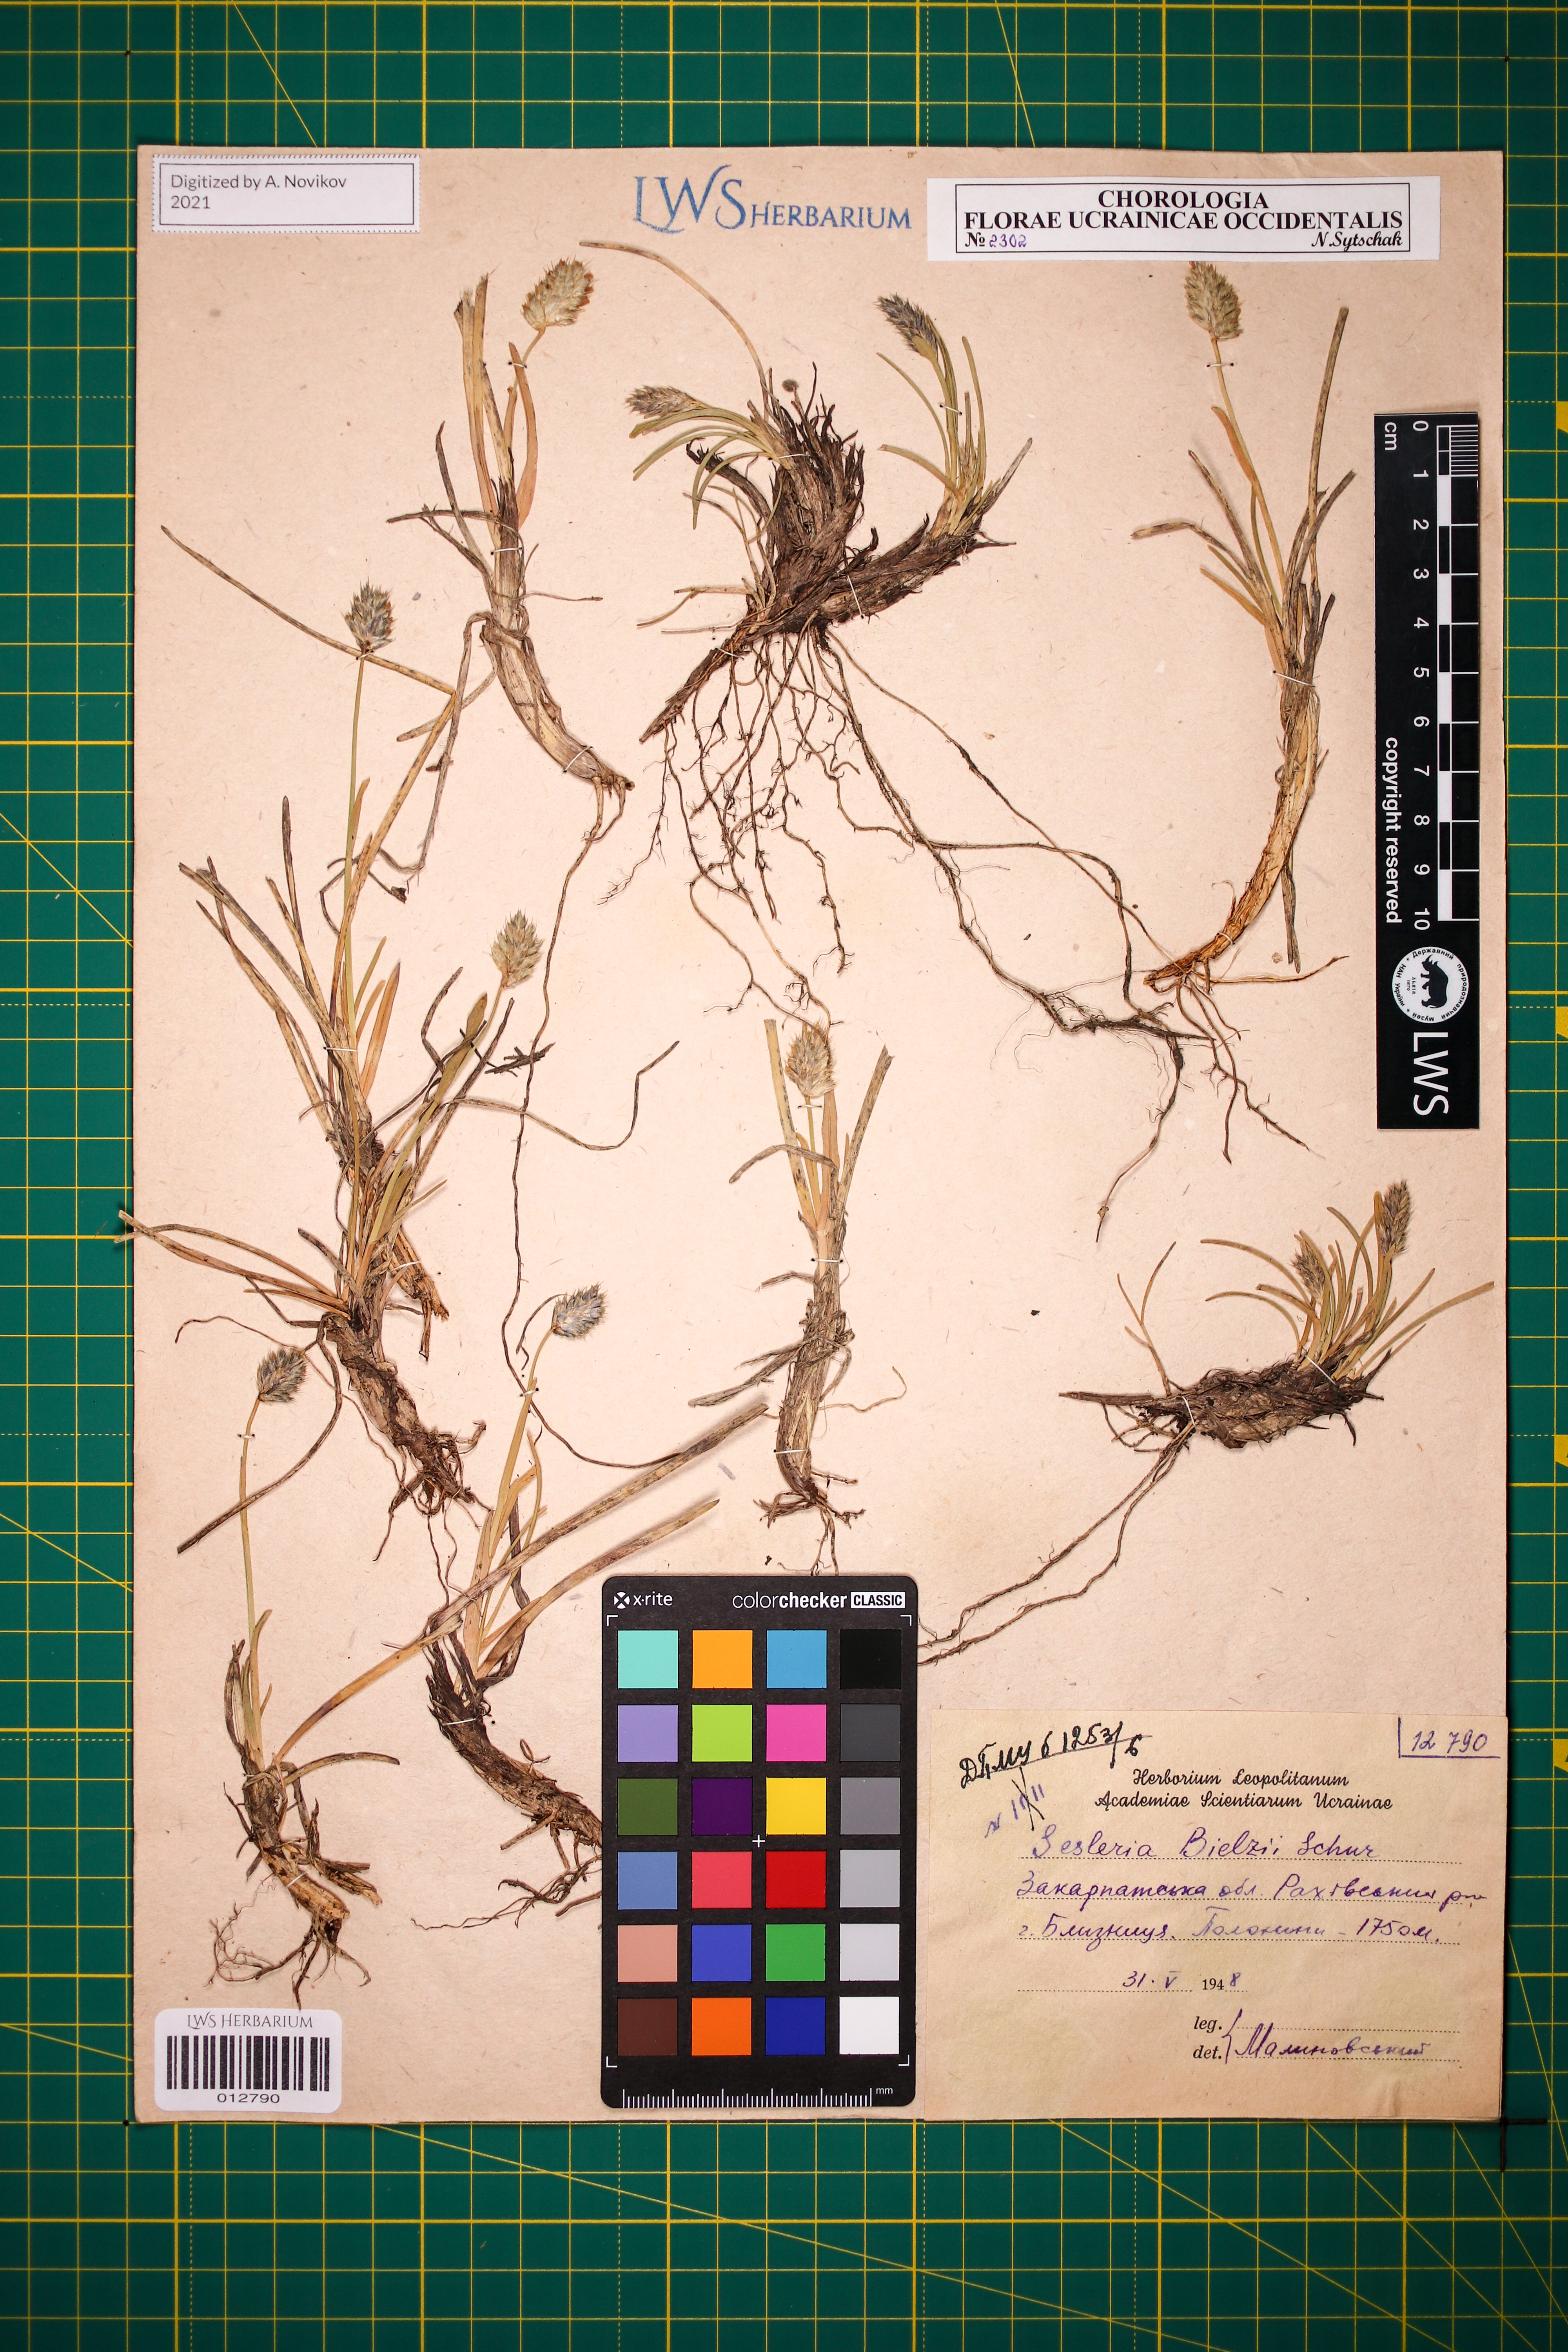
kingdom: Plantae
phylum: Tracheophyta
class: Liliopsida
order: Poales
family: Poaceae
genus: Sesleria
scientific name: Sesleria bielzii
